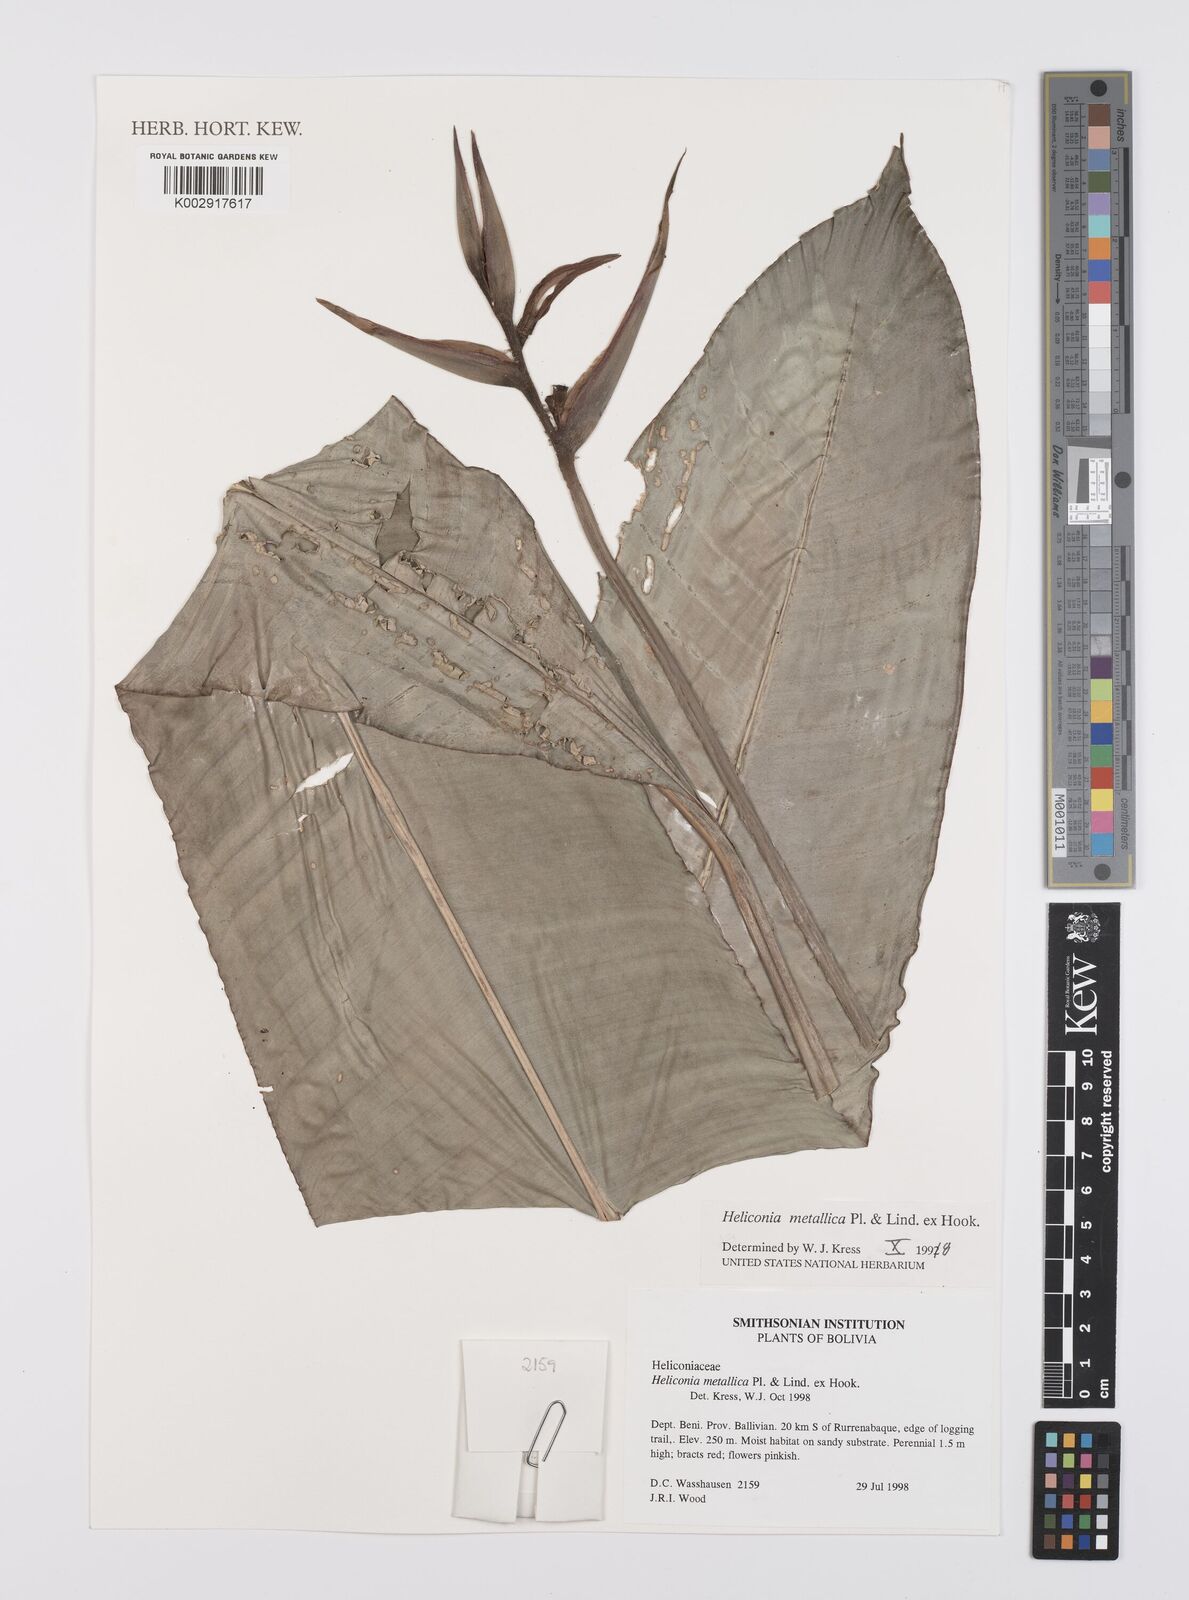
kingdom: Plantae
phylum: Tracheophyta
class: Liliopsida
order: Zingiberales
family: Heliconiaceae
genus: Heliconia
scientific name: Heliconia metallica
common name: Shining bird of paradise
